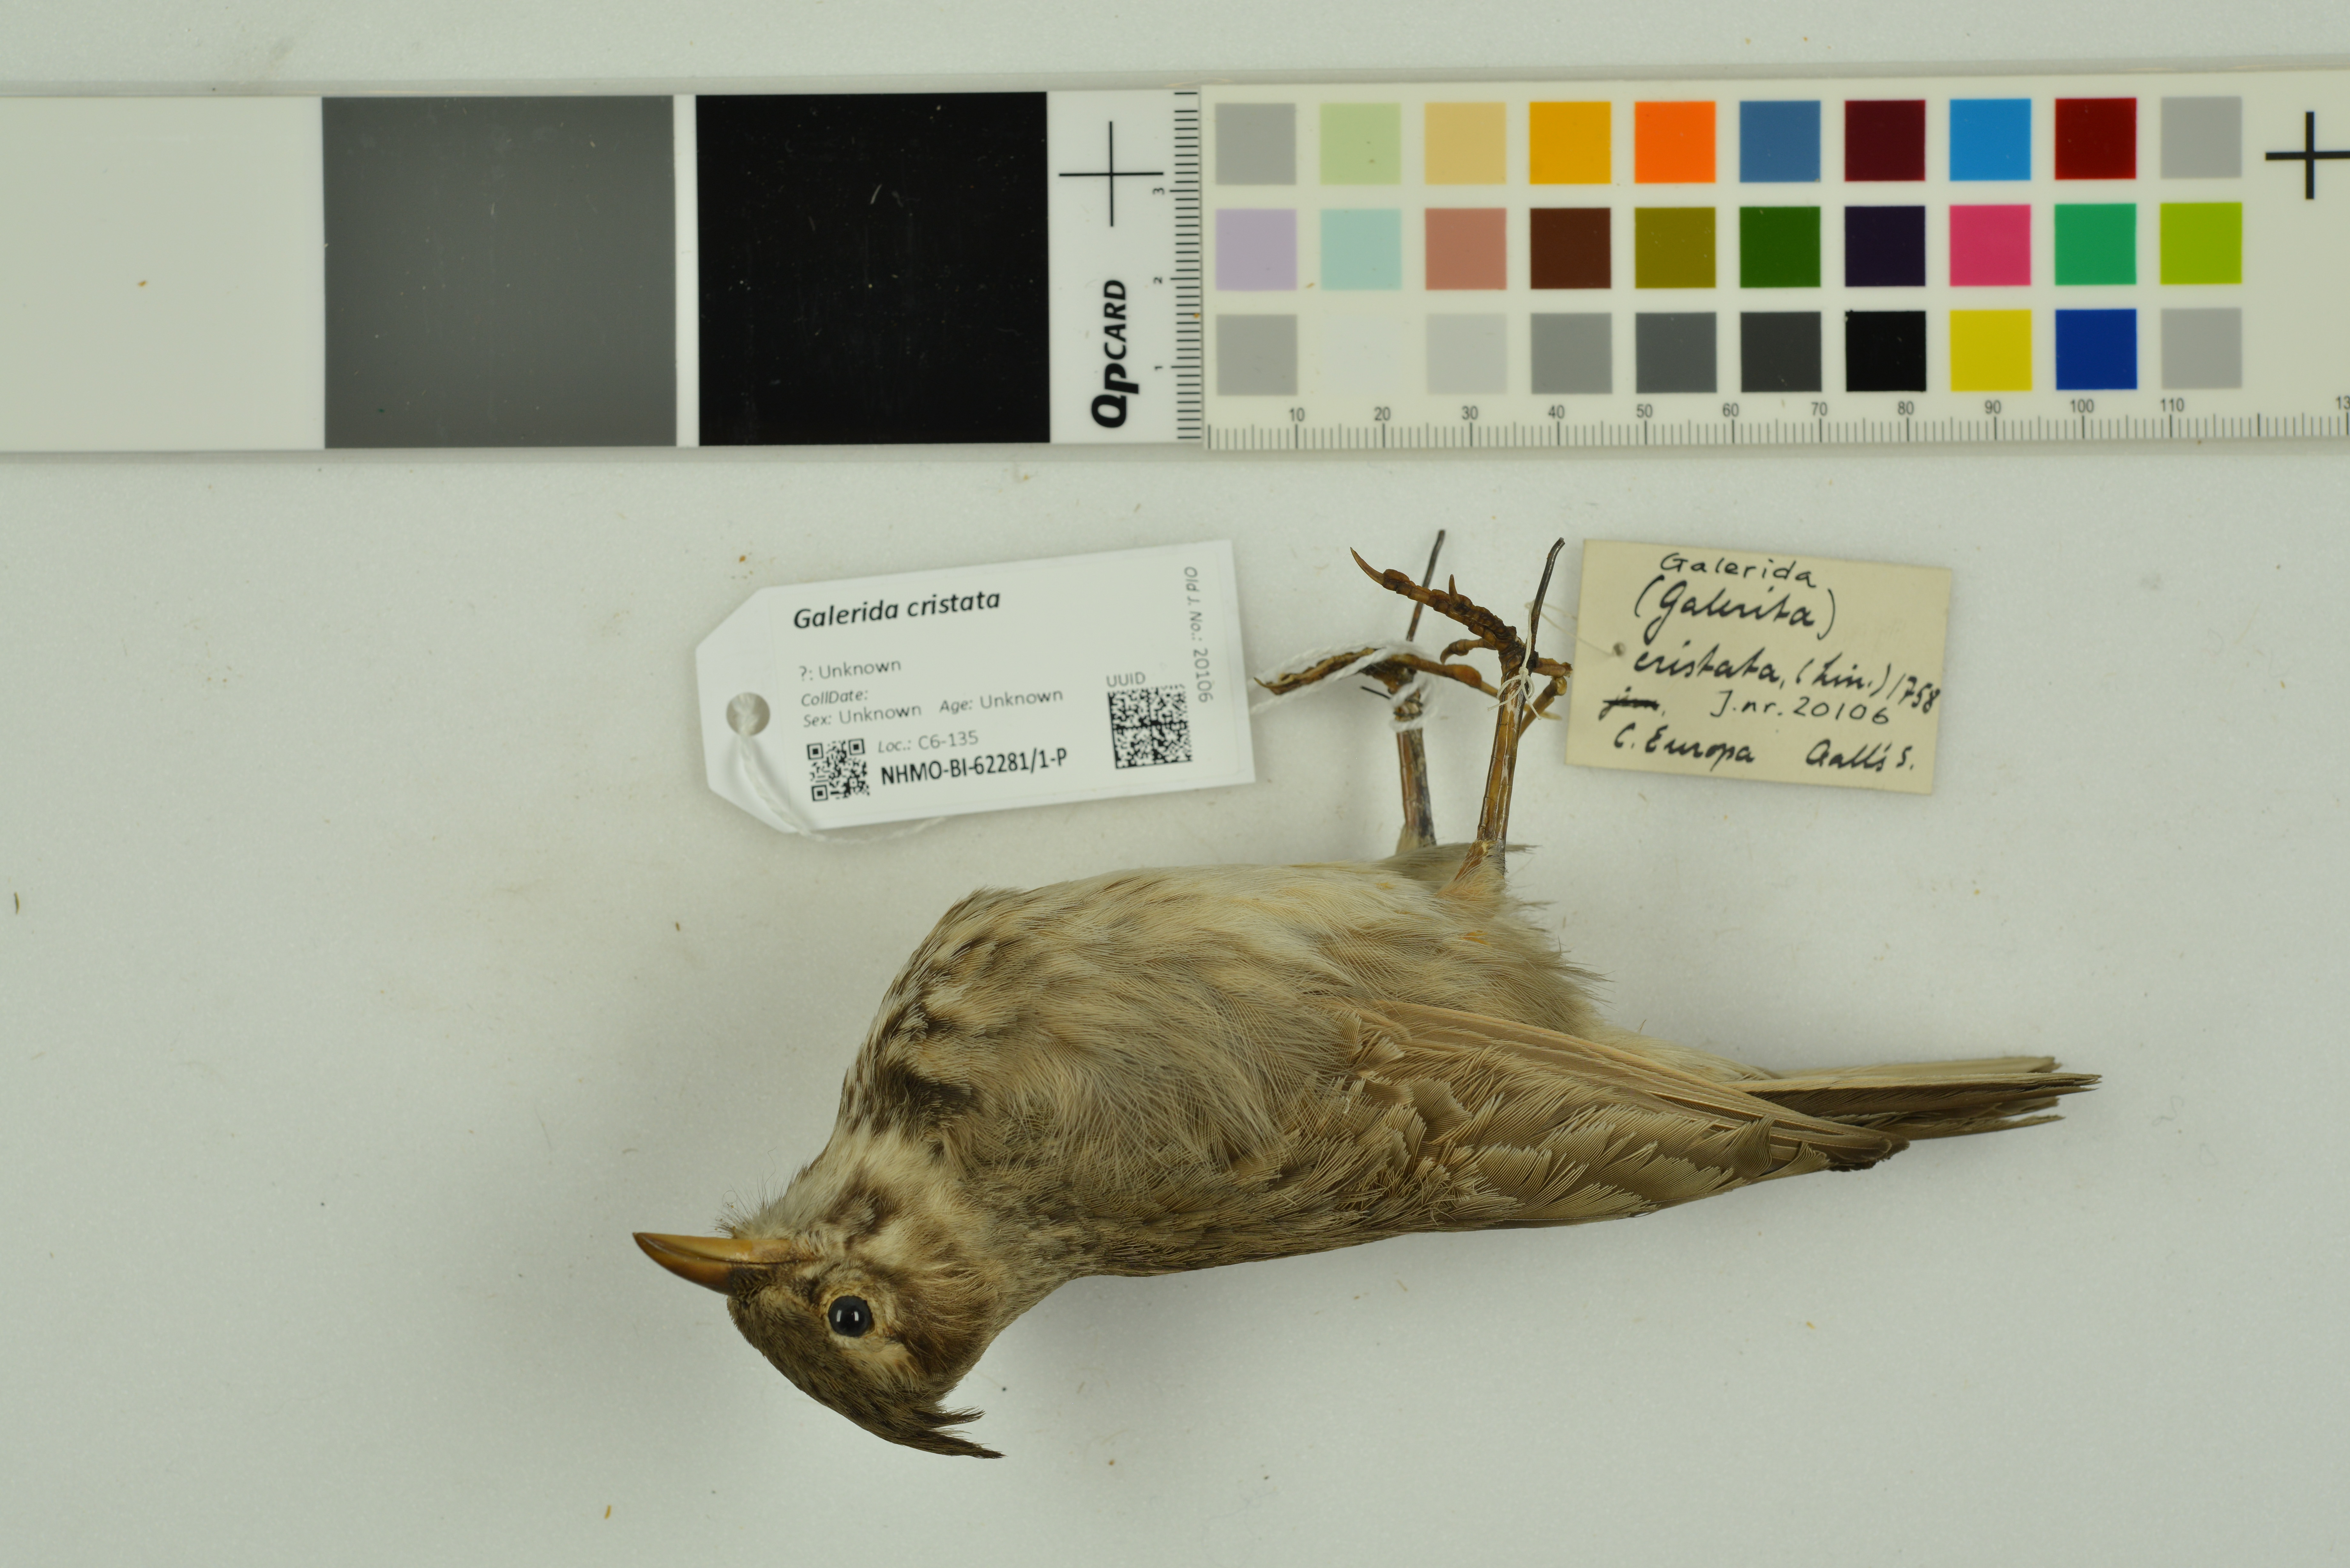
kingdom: Animalia
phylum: Chordata
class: Aves
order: Passeriformes
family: Alaudidae
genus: Galerida
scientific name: Galerida cristata
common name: Crested lark
